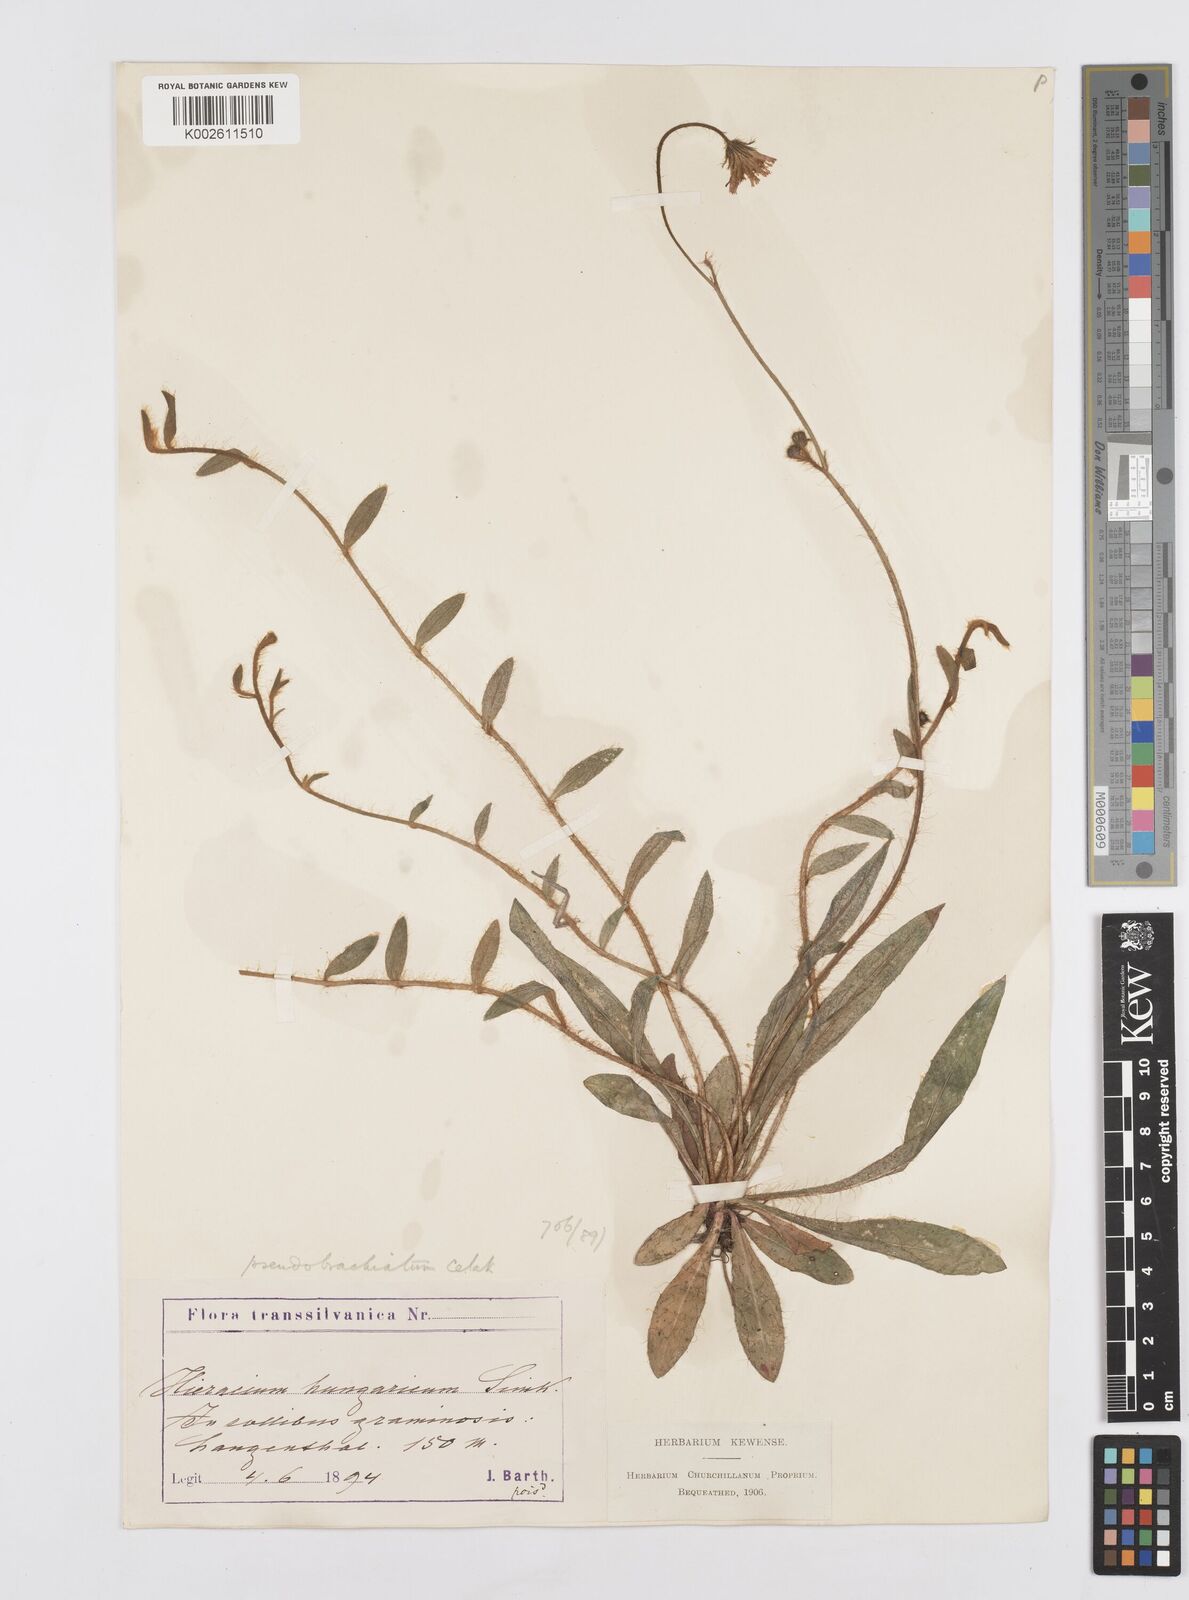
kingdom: Plantae
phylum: Tracheophyta
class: Magnoliopsida
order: Asterales
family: Asteraceae
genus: Pilosella
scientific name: Pilosella acutifolia
